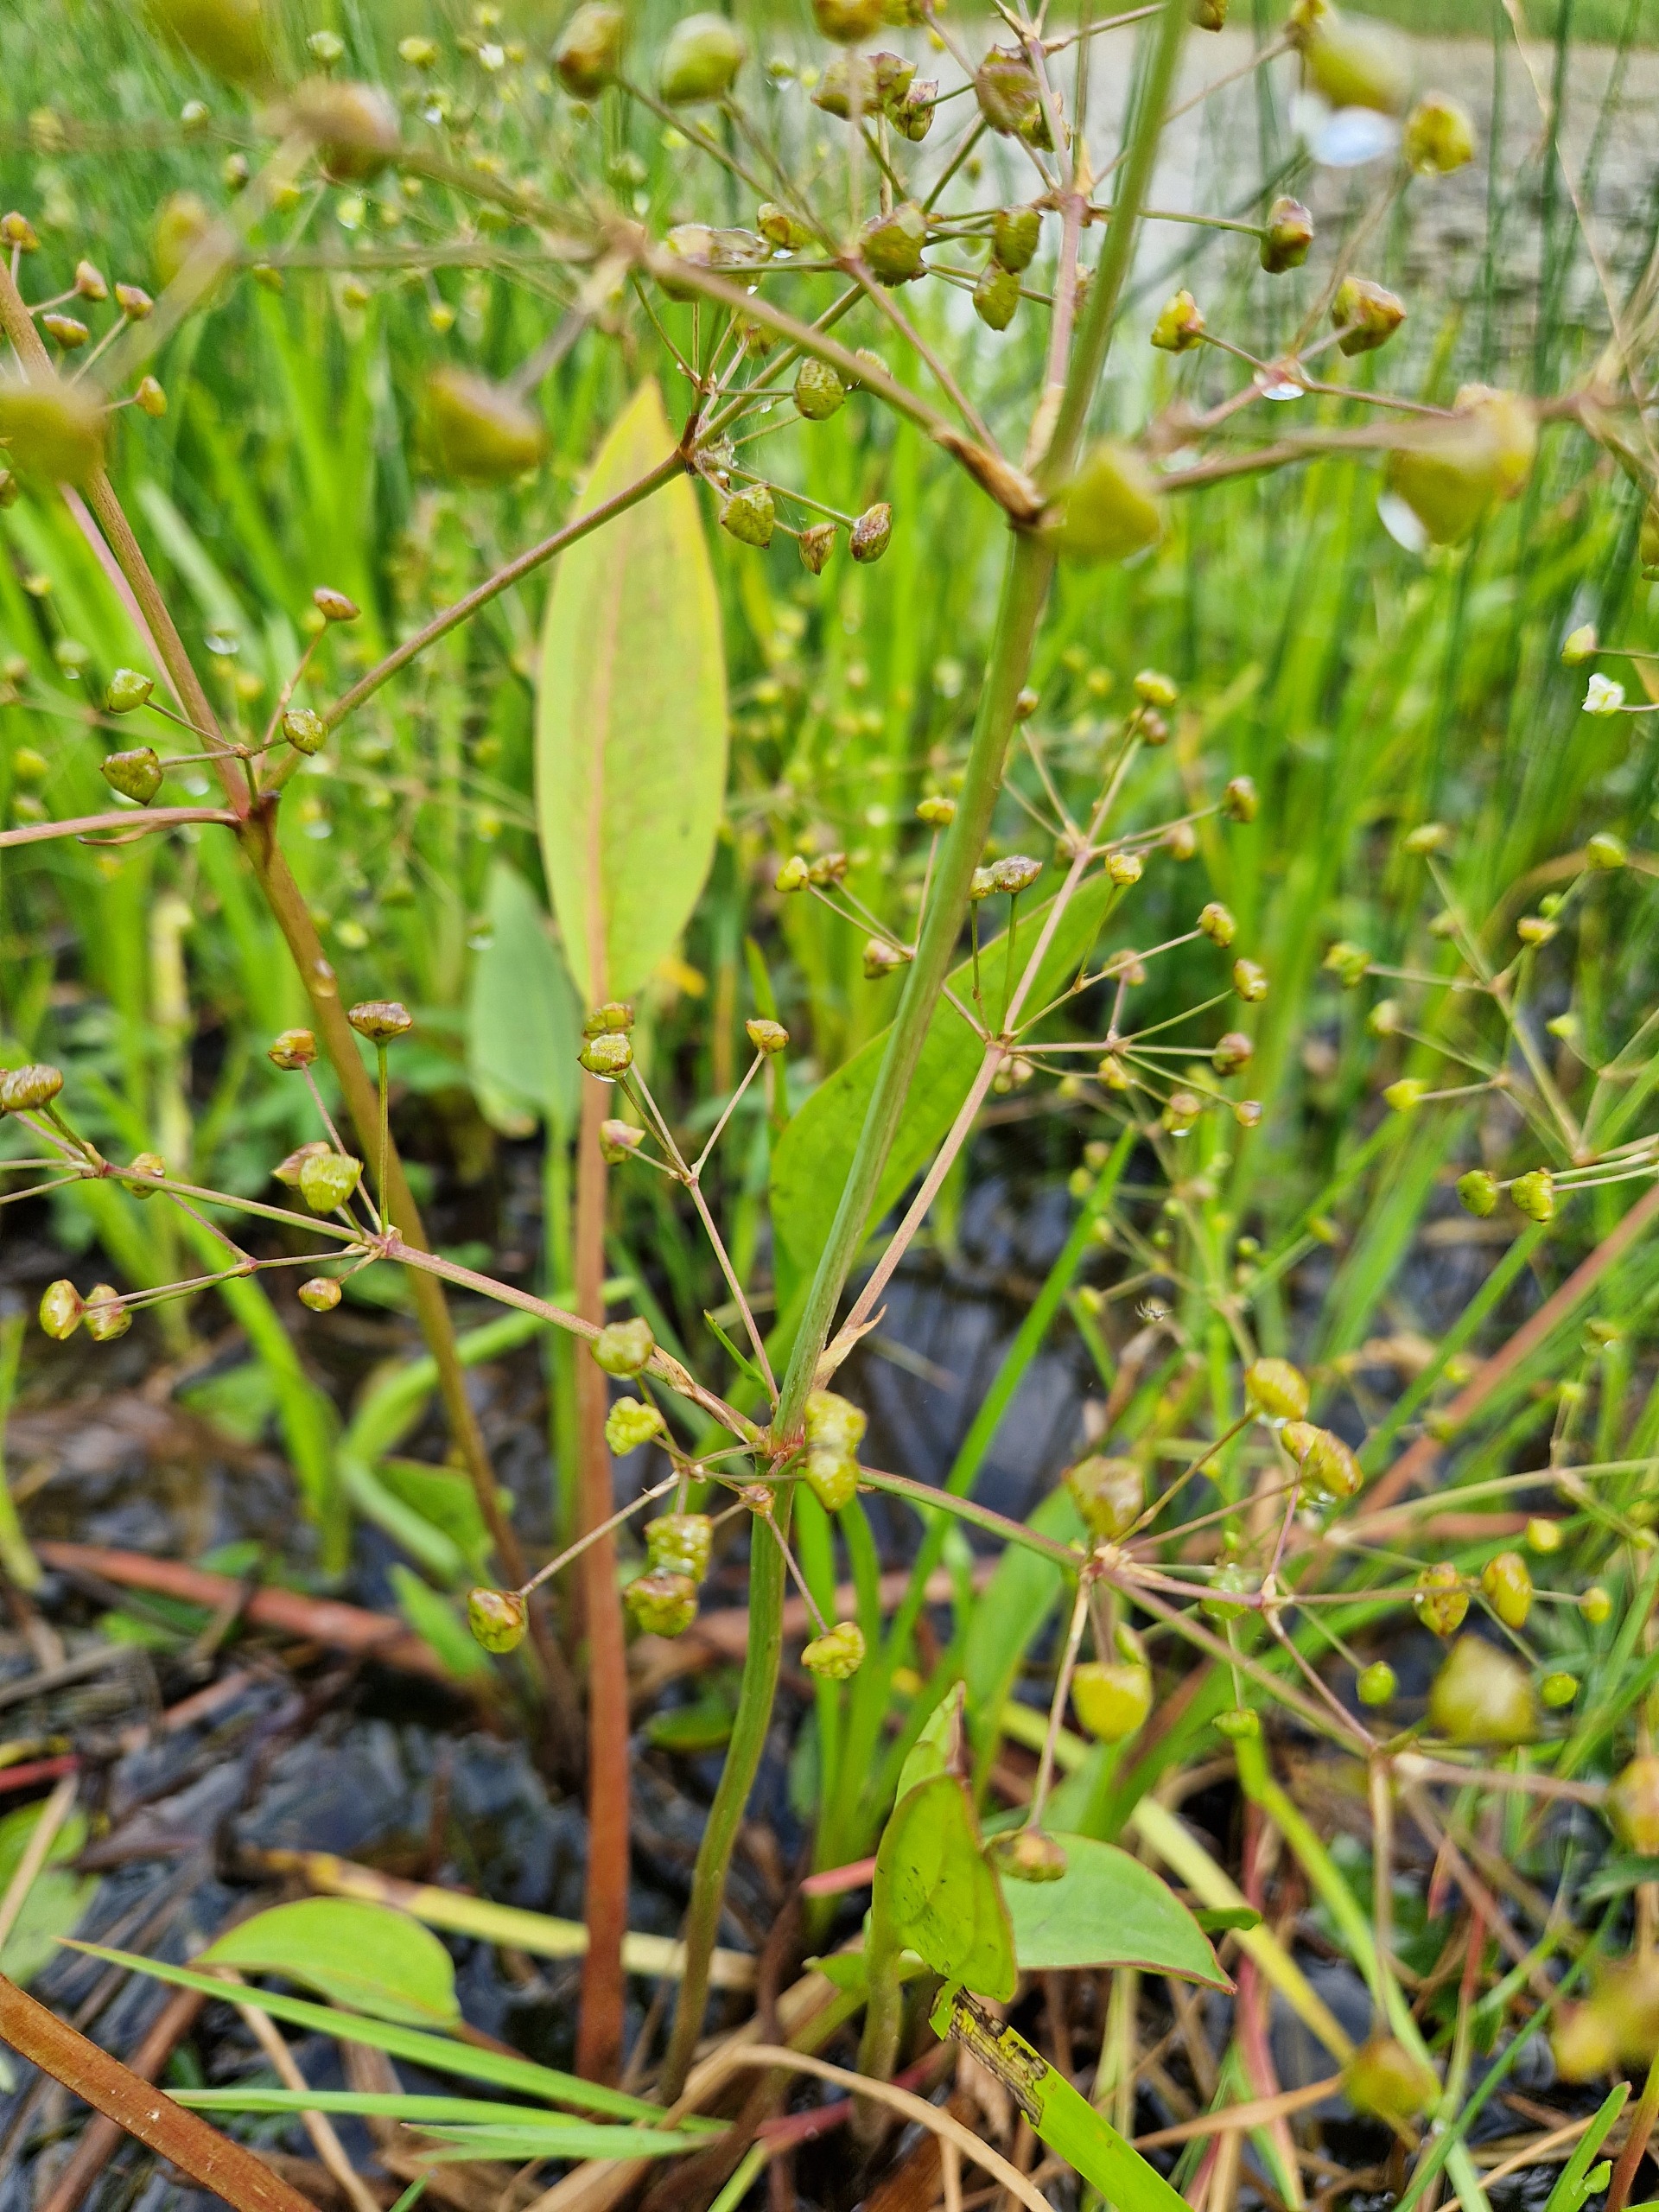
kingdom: Plantae
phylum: Tracheophyta
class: Liliopsida
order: Alismatales
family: Alismataceae
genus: Alisma
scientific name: Alisma plantago-aquatica
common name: Vejbred-skeblad
